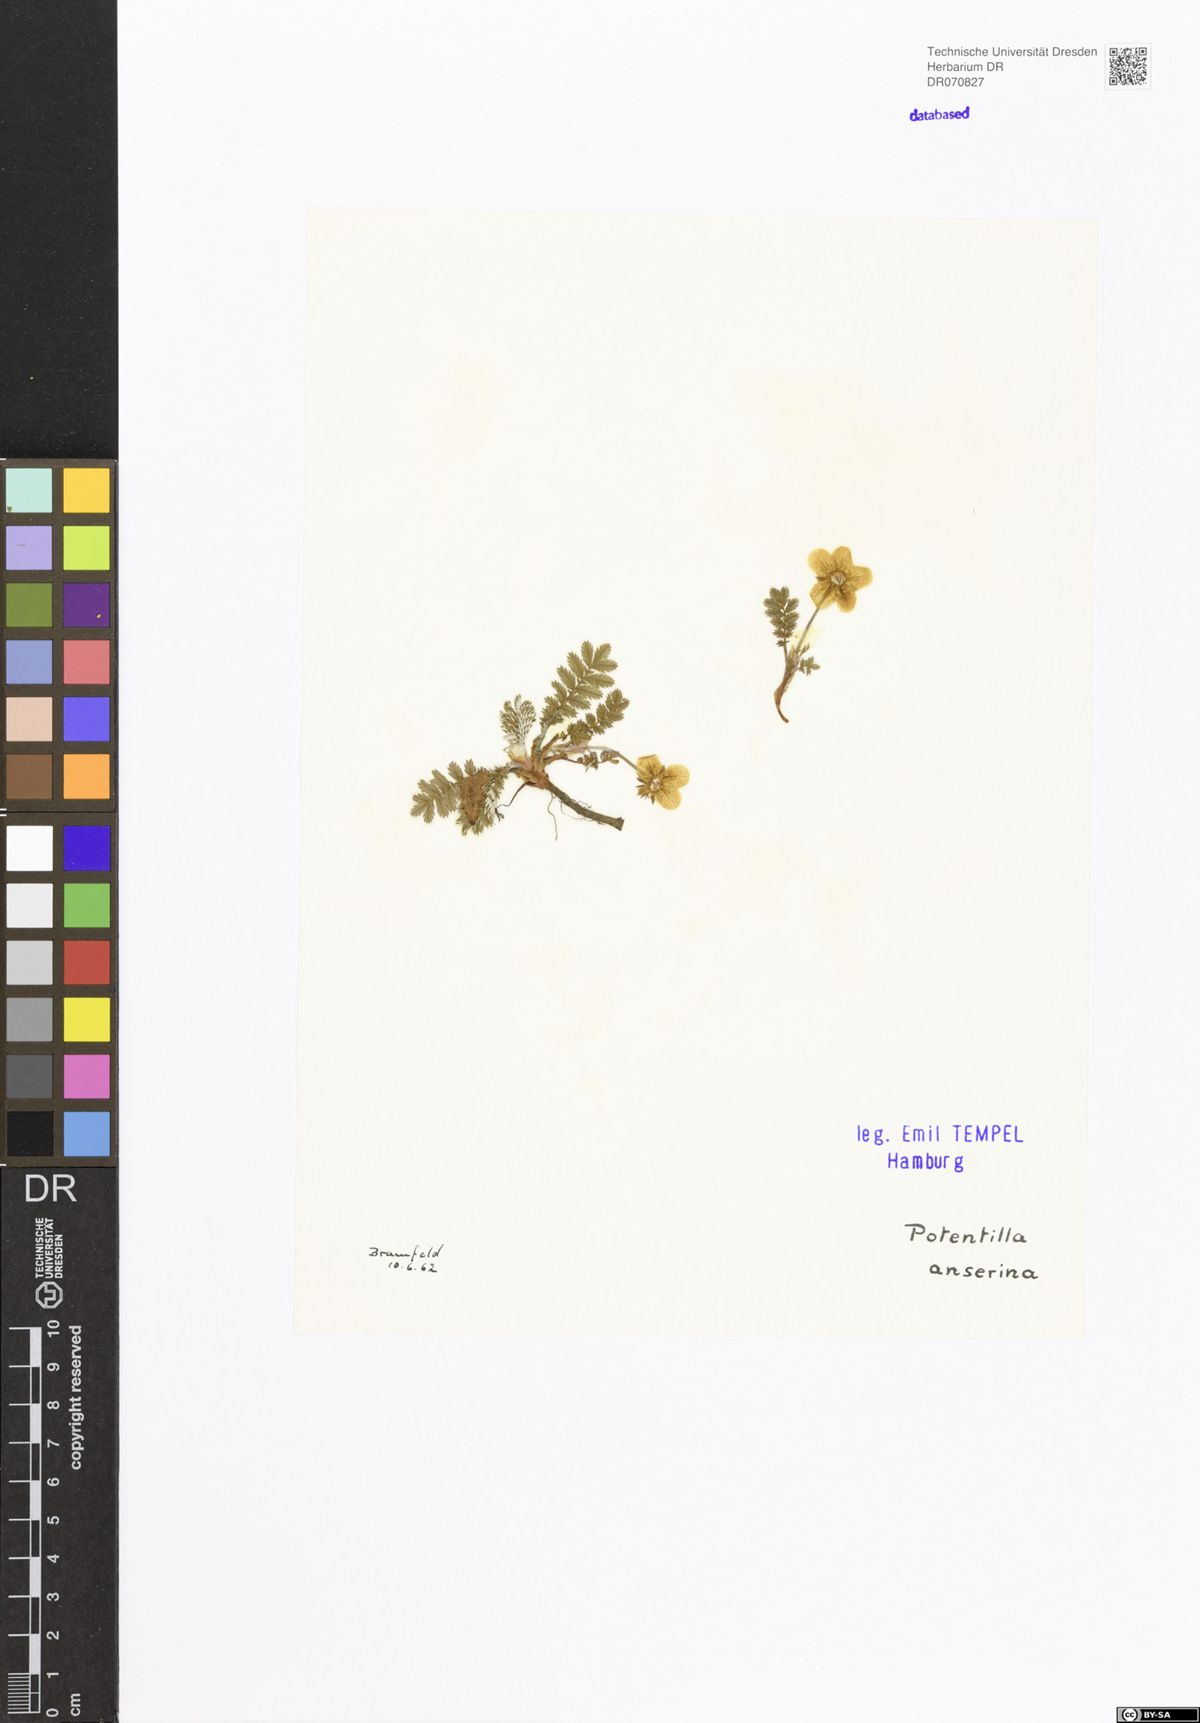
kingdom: Plantae
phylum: Tracheophyta
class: Magnoliopsida
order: Rosales
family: Rosaceae
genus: Argentina
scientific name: Argentina anserina
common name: Common silverweed
